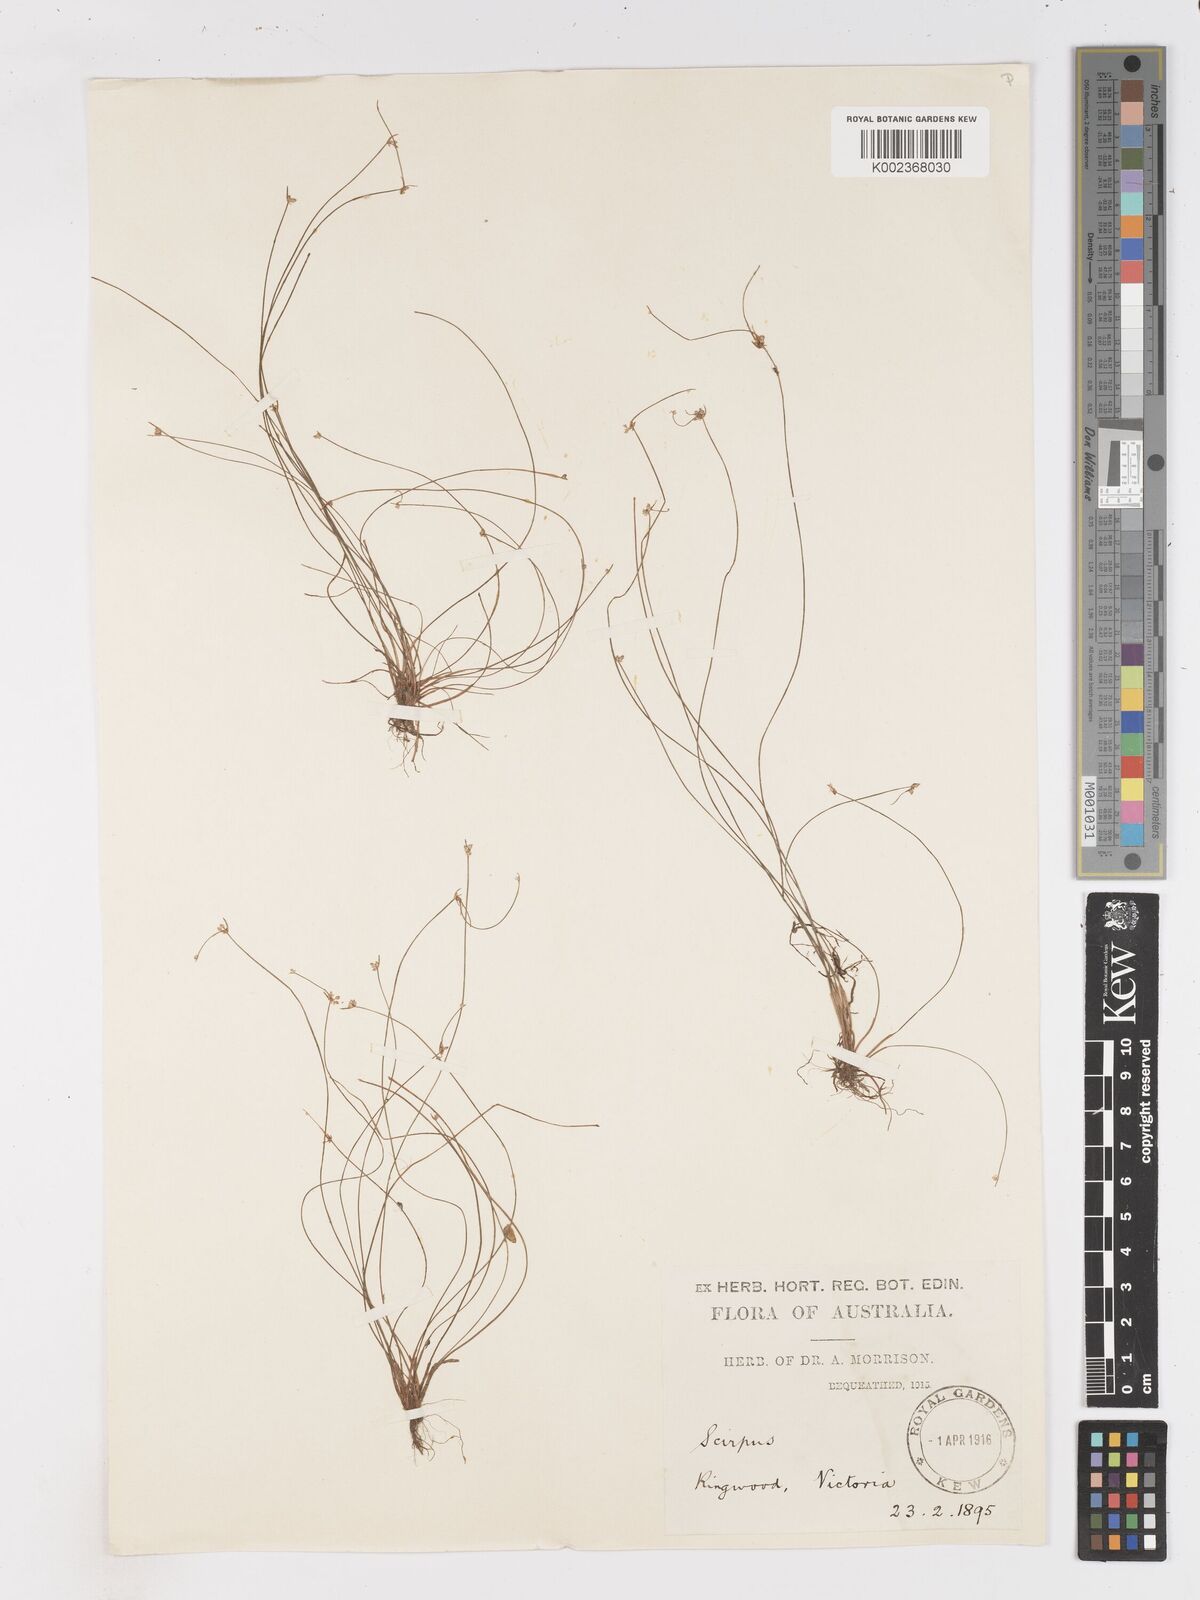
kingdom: Plantae
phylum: Tracheophyta
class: Liliopsida
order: Poales
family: Cyperaceae
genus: Isolepis
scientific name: Isolepis inundata
